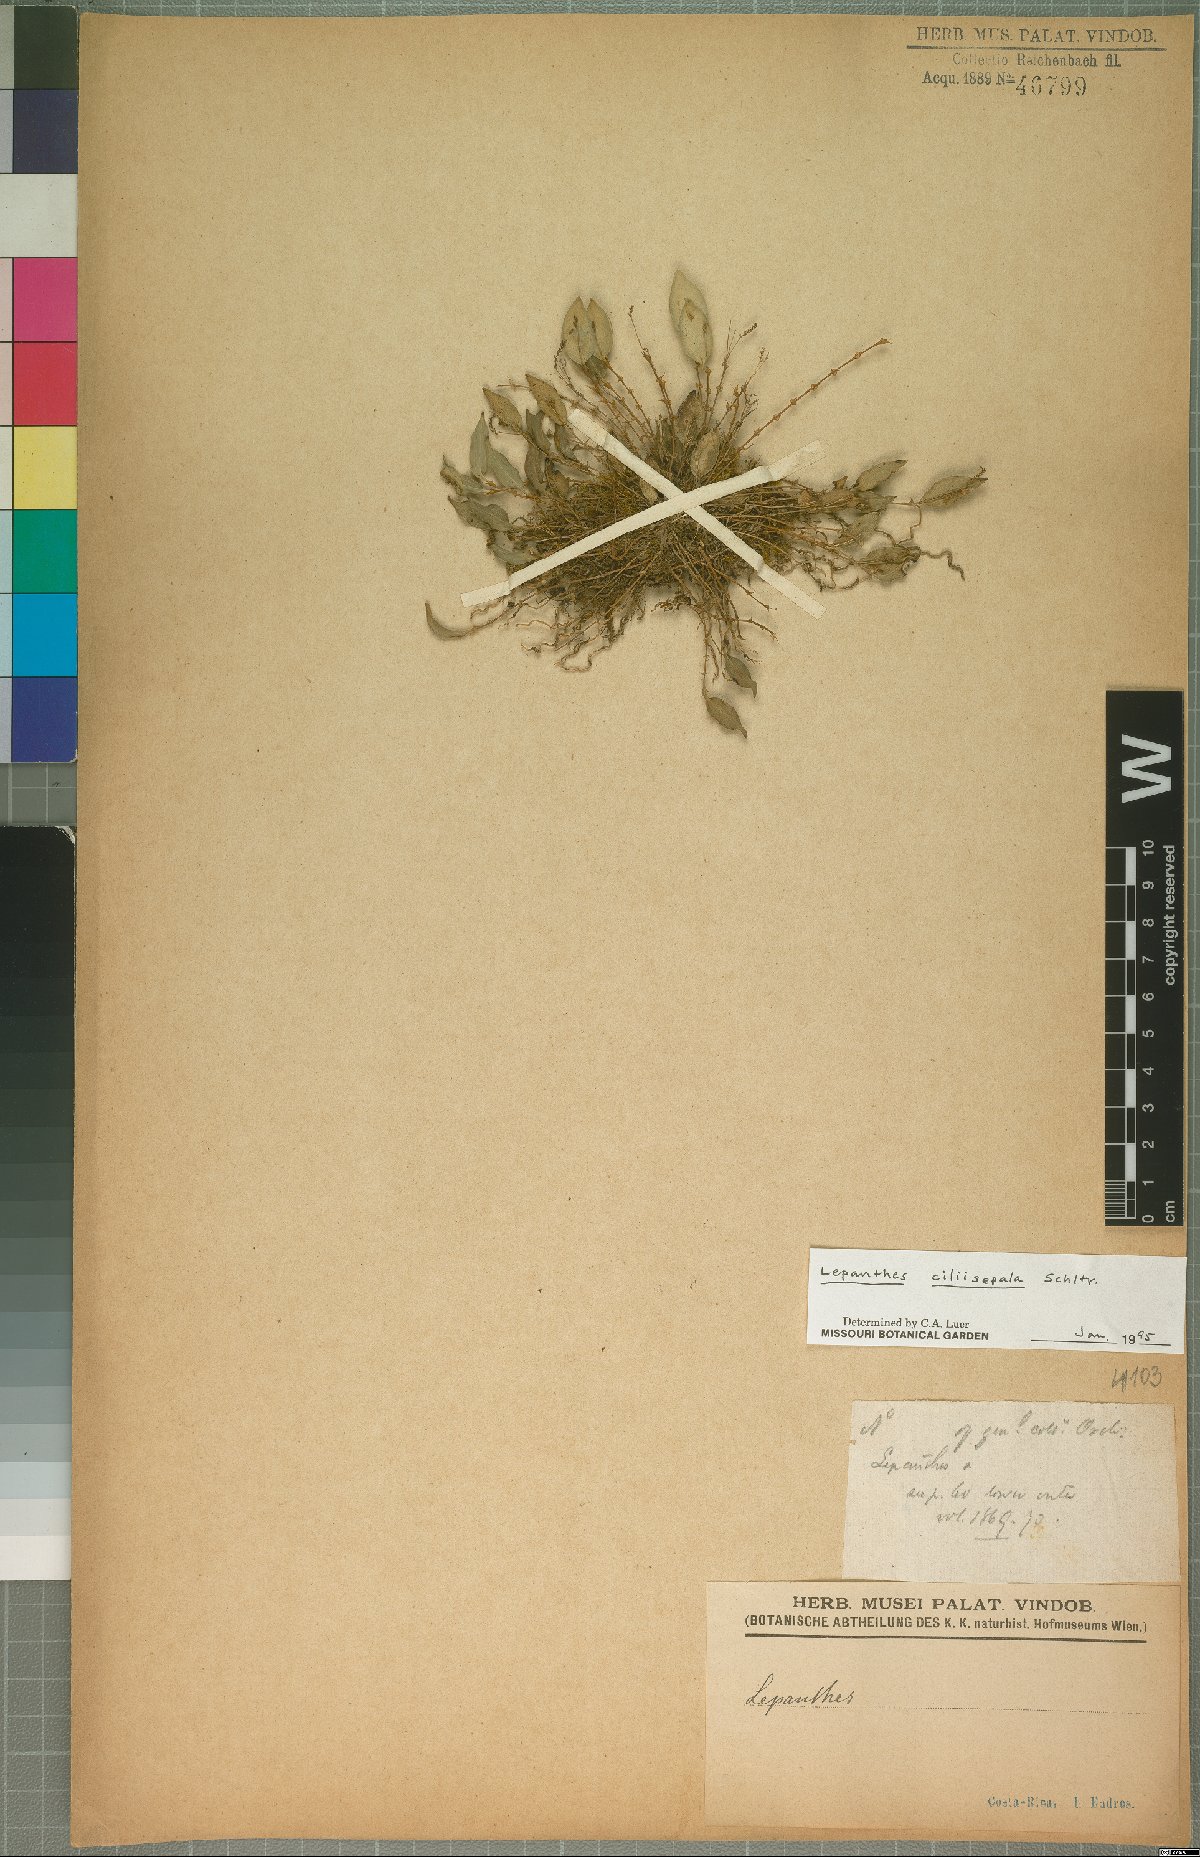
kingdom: Plantae
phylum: Tracheophyta
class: Liliopsida
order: Asparagales
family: Orchidaceae
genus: Lepanthes
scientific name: Lepanthes ciliisepala
